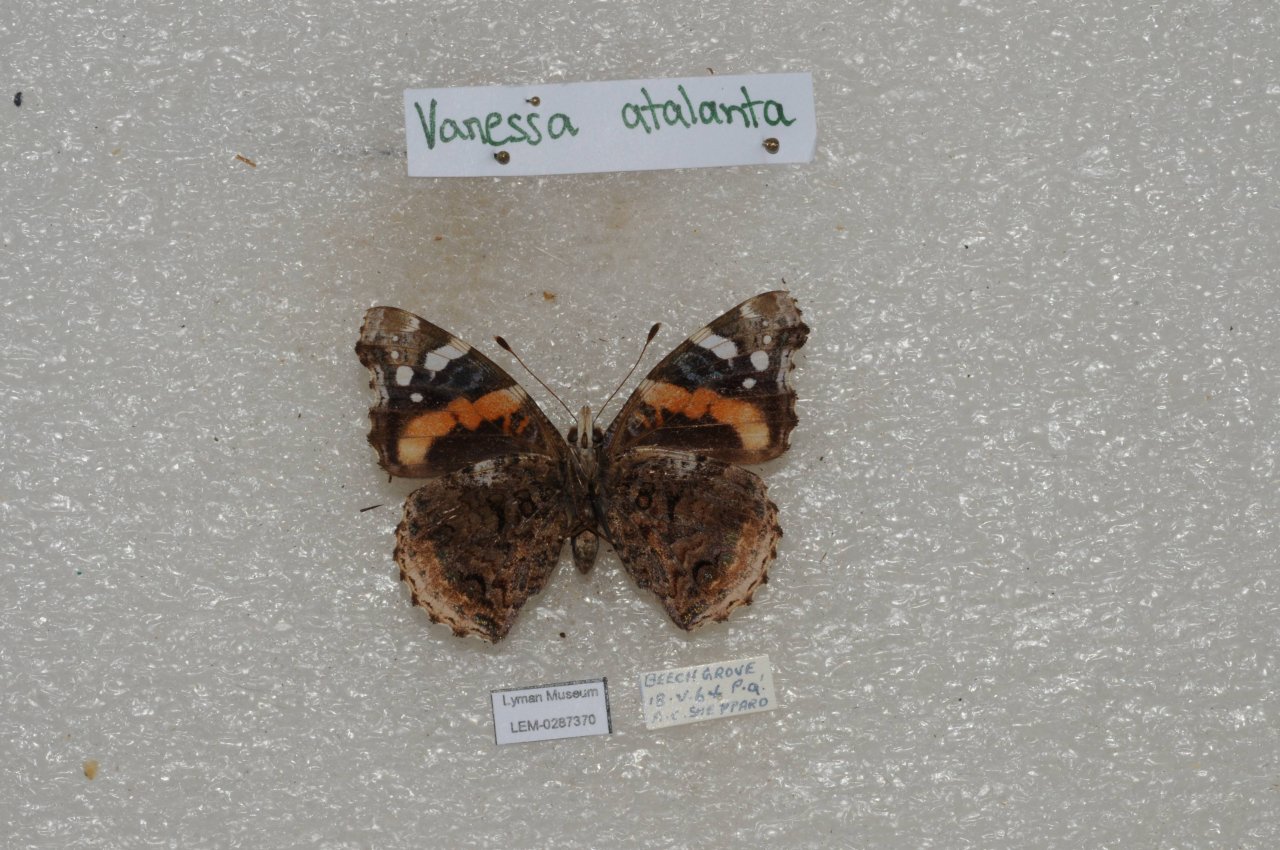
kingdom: Animalia
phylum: Arthropoda
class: Insecta
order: Lepidoptera
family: Nymphalidae
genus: Vanessa
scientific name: Vanessa atalanta
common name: Red Admiral
